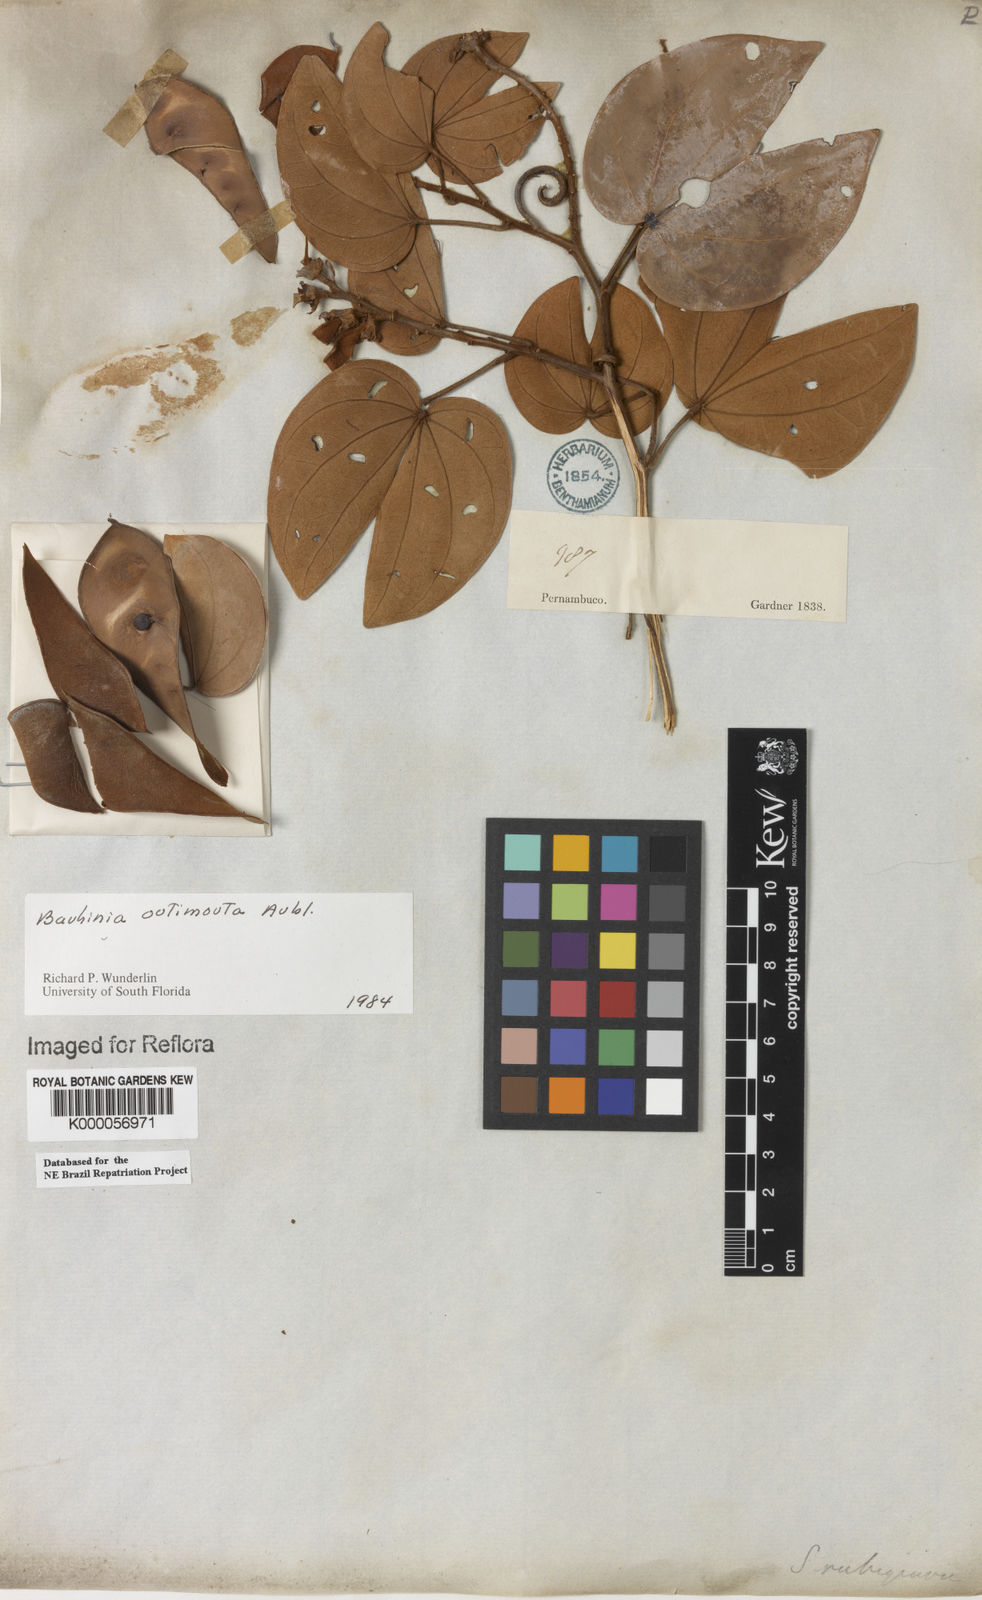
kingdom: Plantae
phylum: Tracheophyta
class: Magnoliopsida
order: Fabales
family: Fabaceae
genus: Schnella
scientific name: Schnella outimouta
